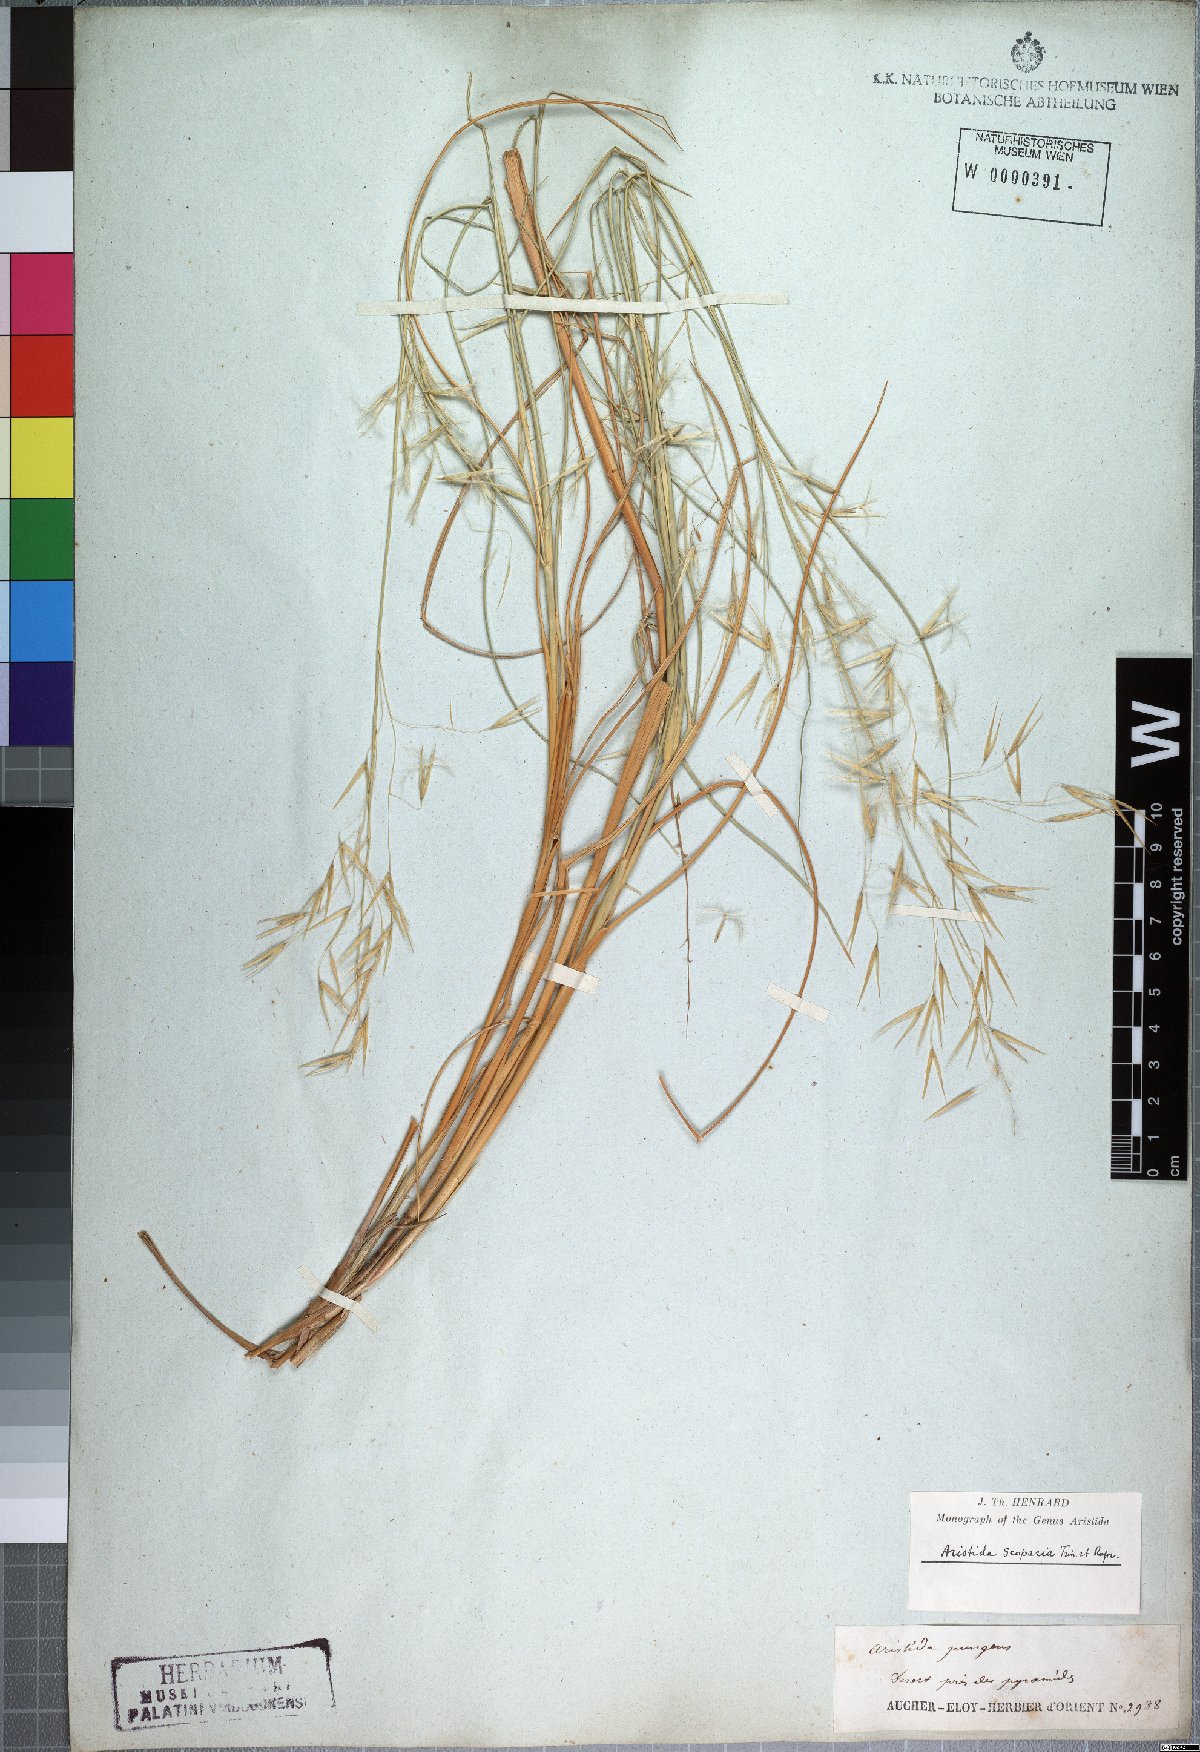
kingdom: Plantae
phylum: Tracheophyta
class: Liliopsida
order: Poales
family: Poaceae
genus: Stipagrostis
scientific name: Stipagrostis scoparia
